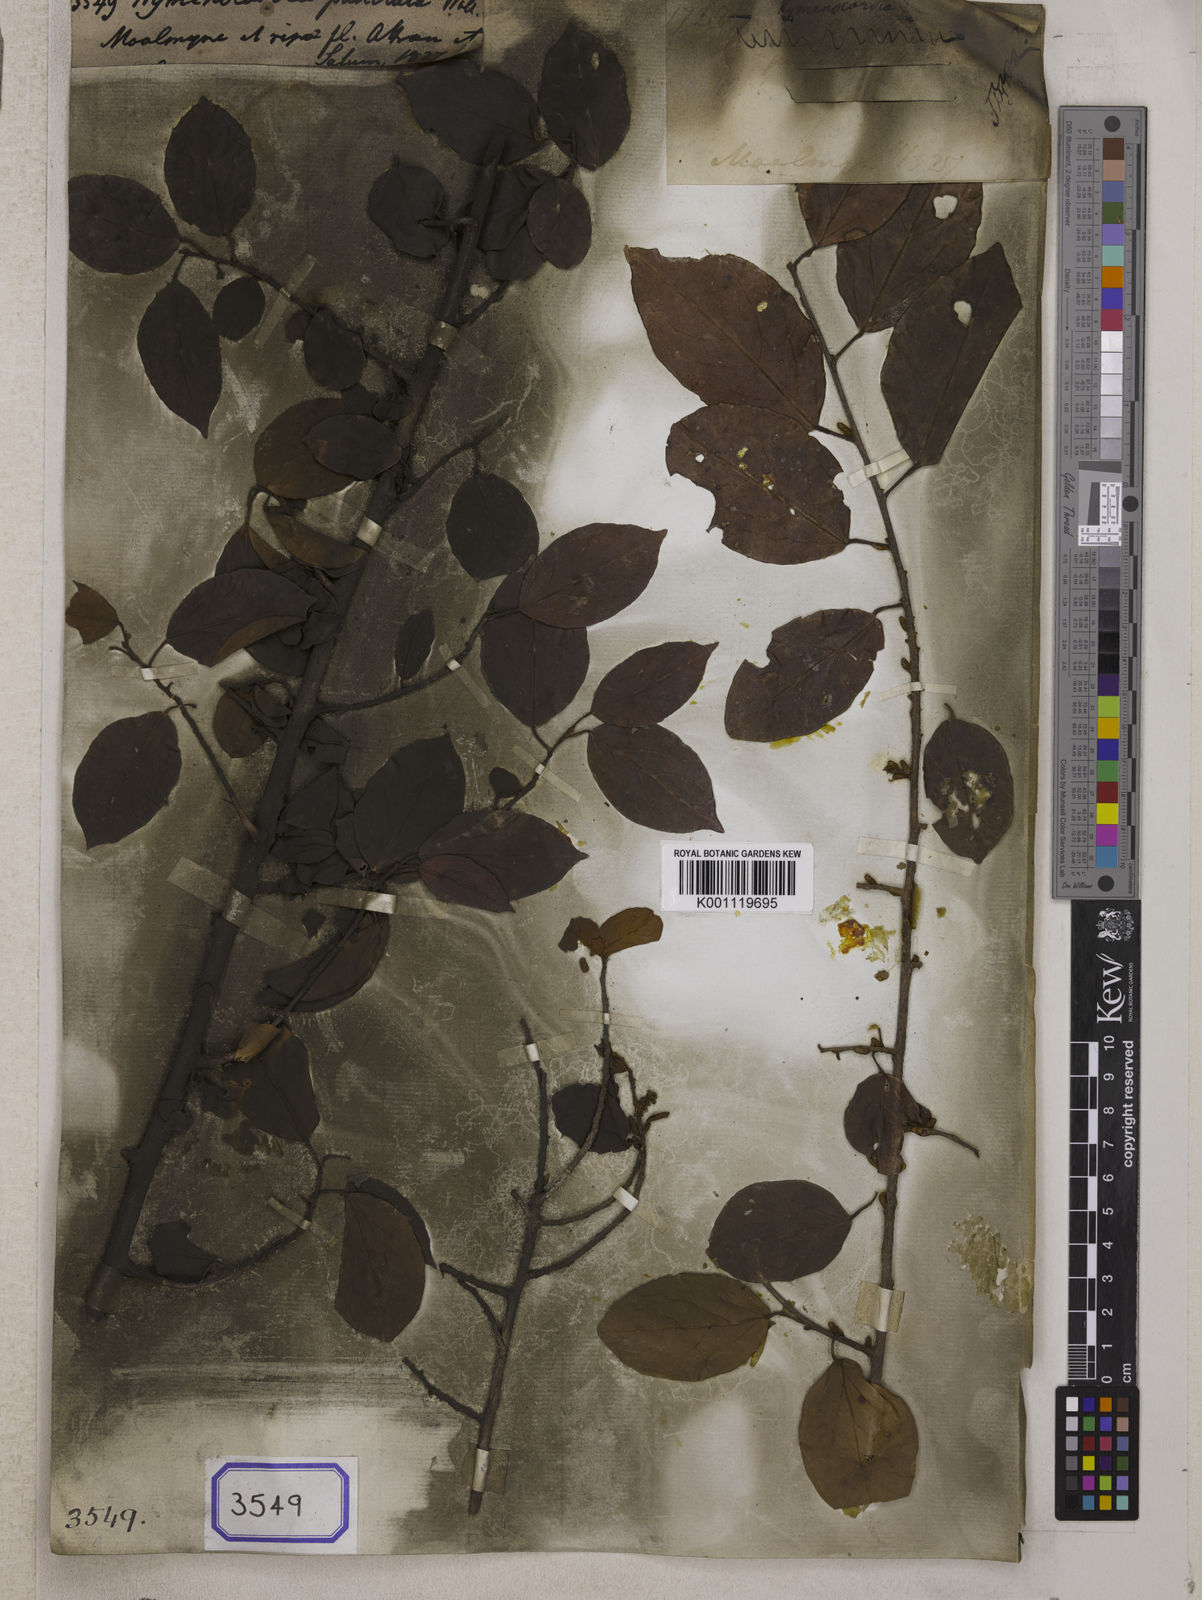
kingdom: Plantae
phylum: Tracheophyta
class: Magnoliopsida
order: Malpighiales
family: Phyllanthaceae
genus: Hymenocardia
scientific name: Hymenocardia
